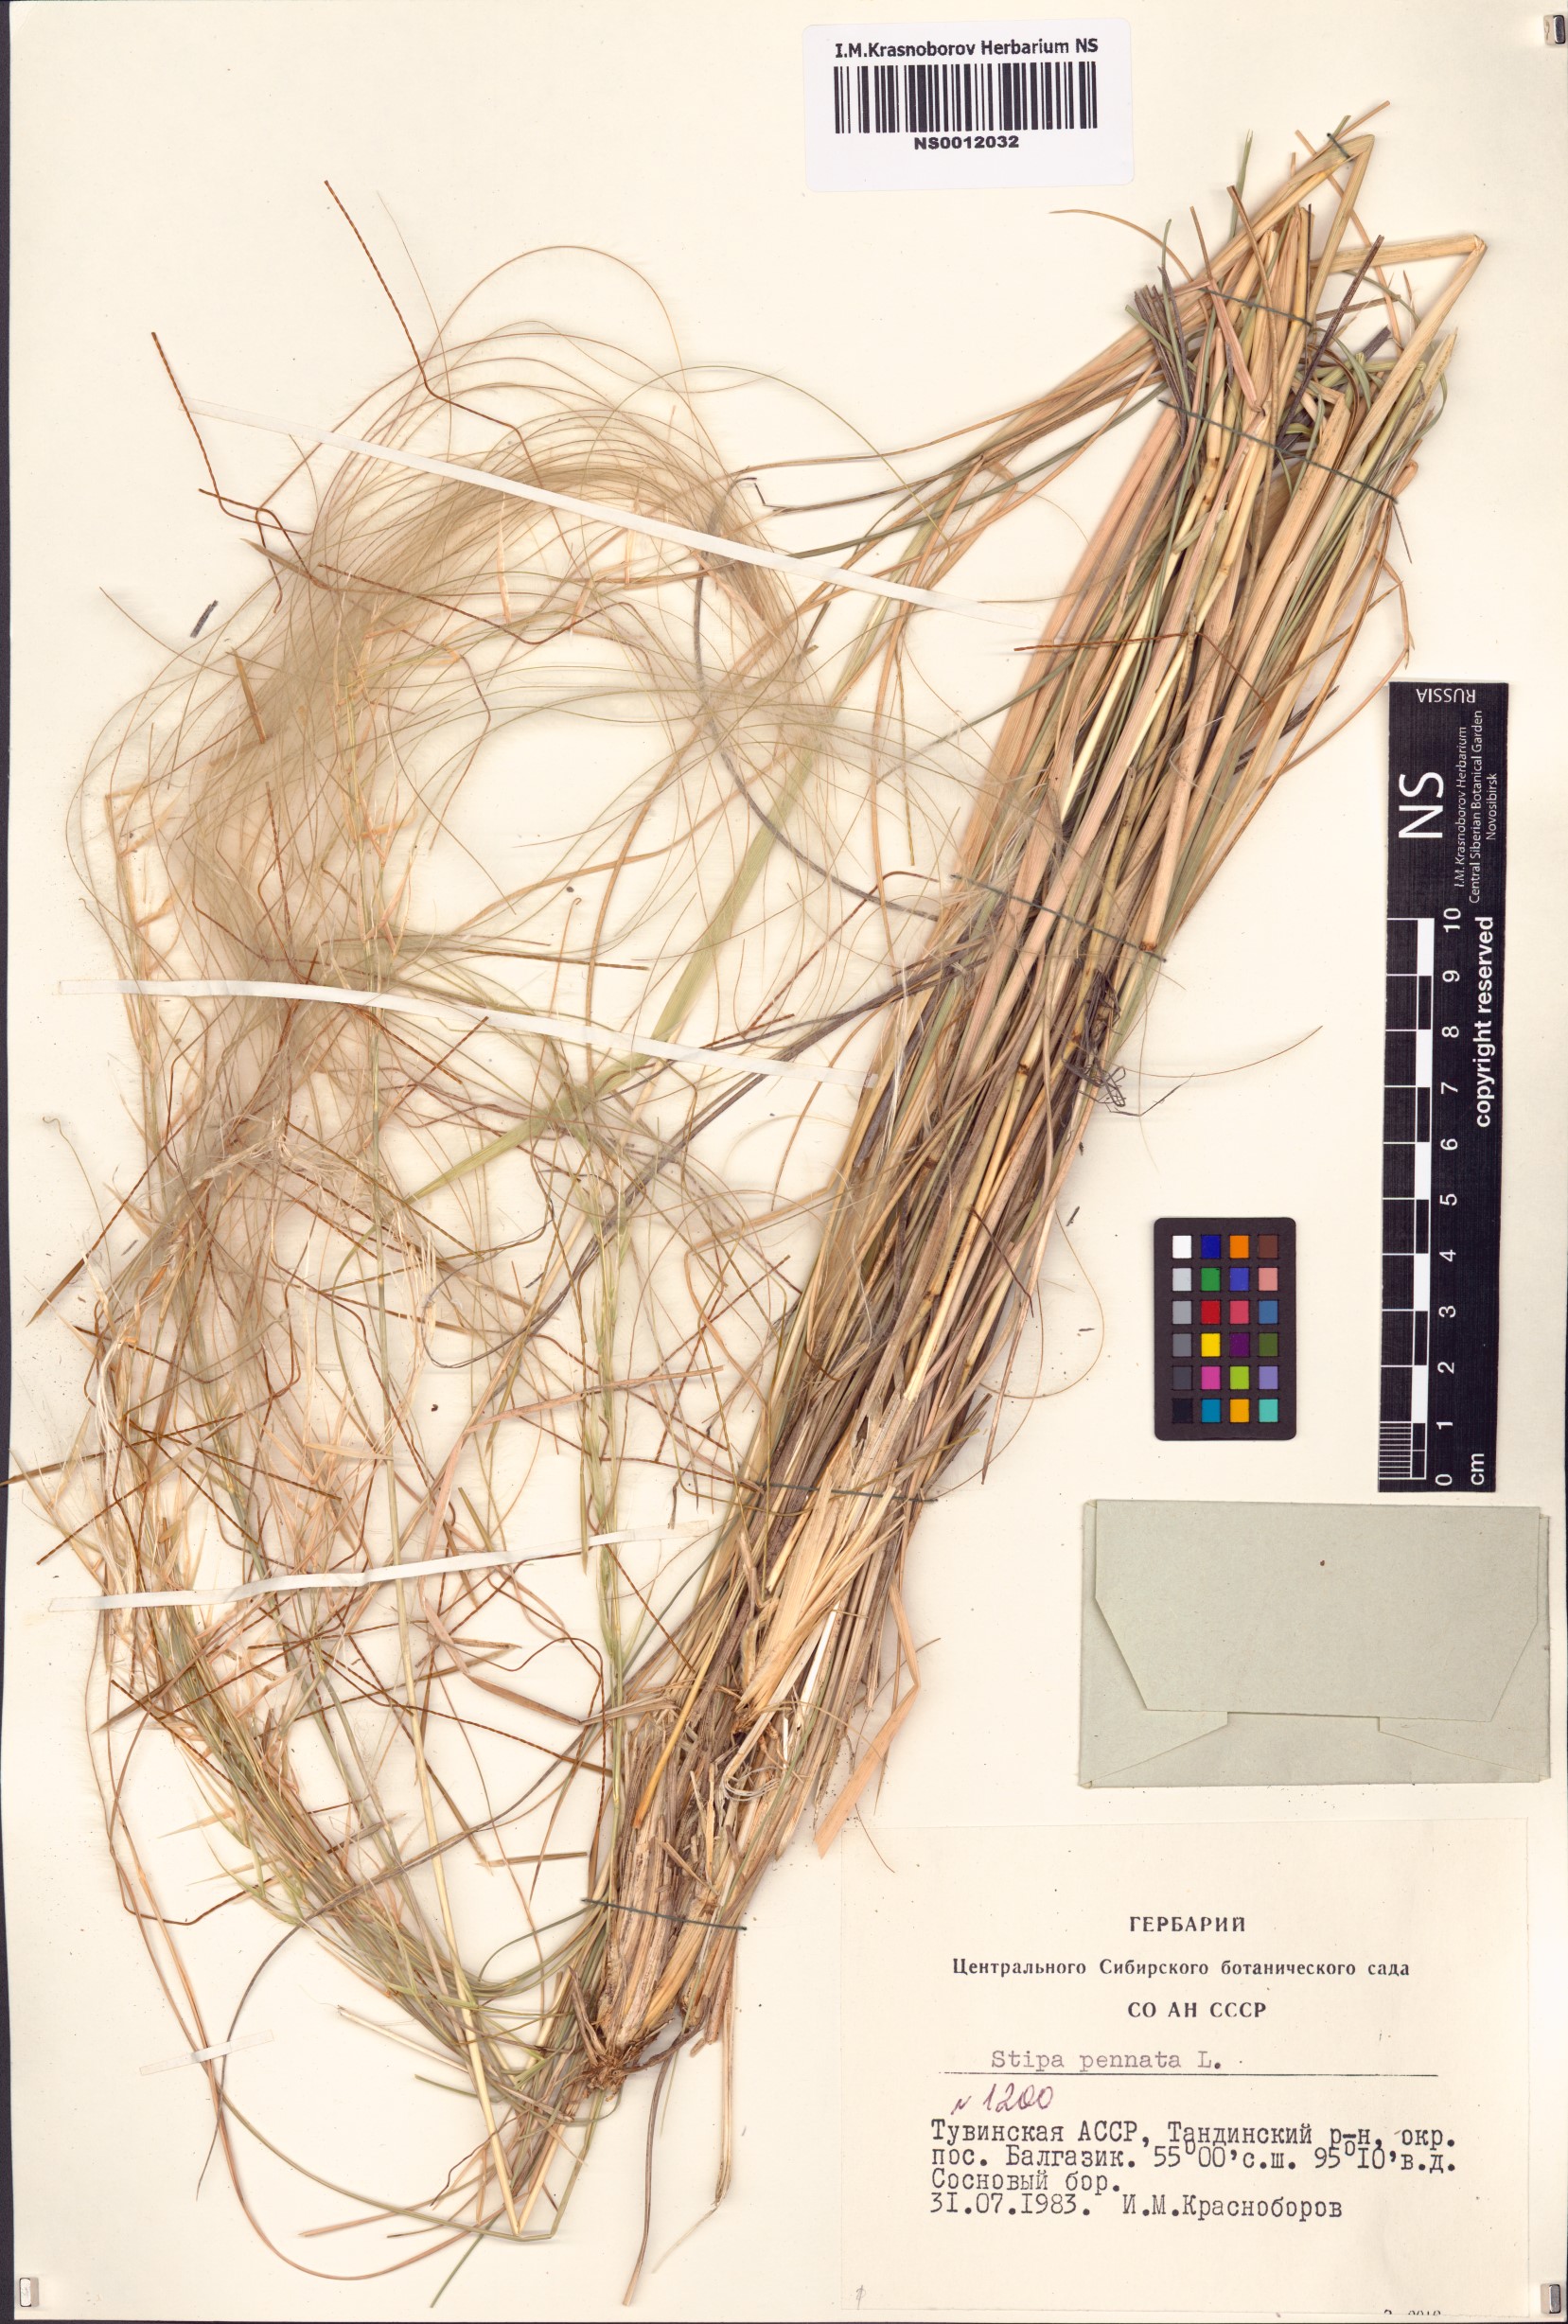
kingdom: Plantae
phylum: Tracheophyta
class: Liliopsida
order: Poales
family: Poaceae
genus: Stipa
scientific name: Stipa pennata
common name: European feather grass
